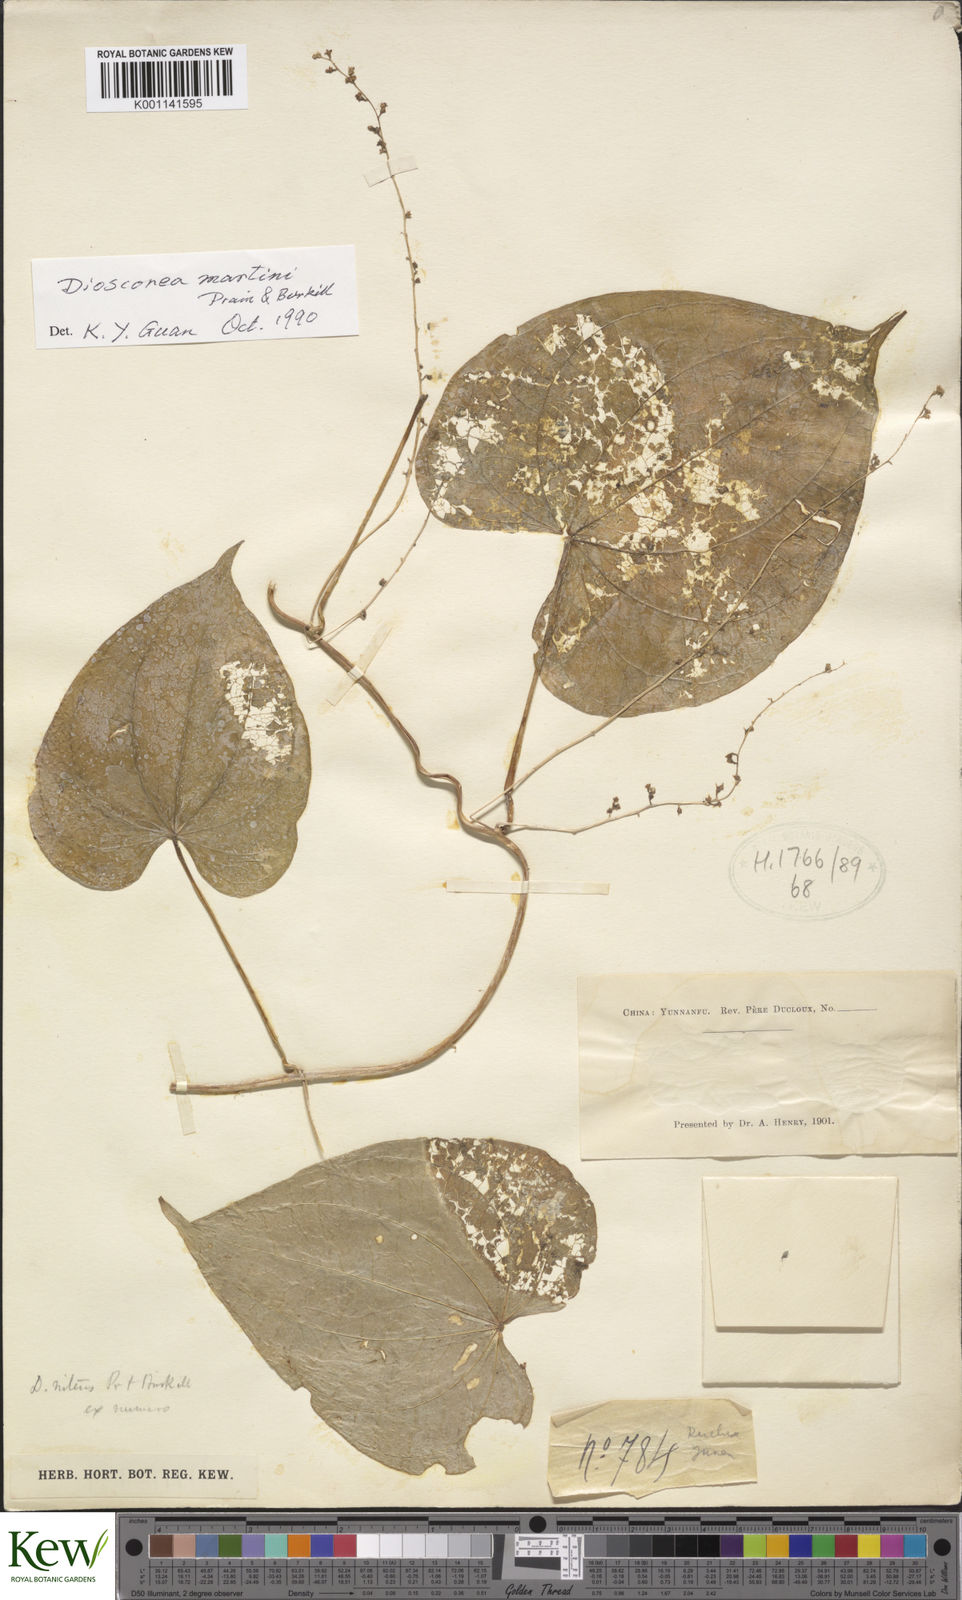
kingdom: Plantae
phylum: Tracheophyta
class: Liliopsida
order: Dioscoreales
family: Dioscoreaceae
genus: Dioscorea
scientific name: Dioscorea martini
